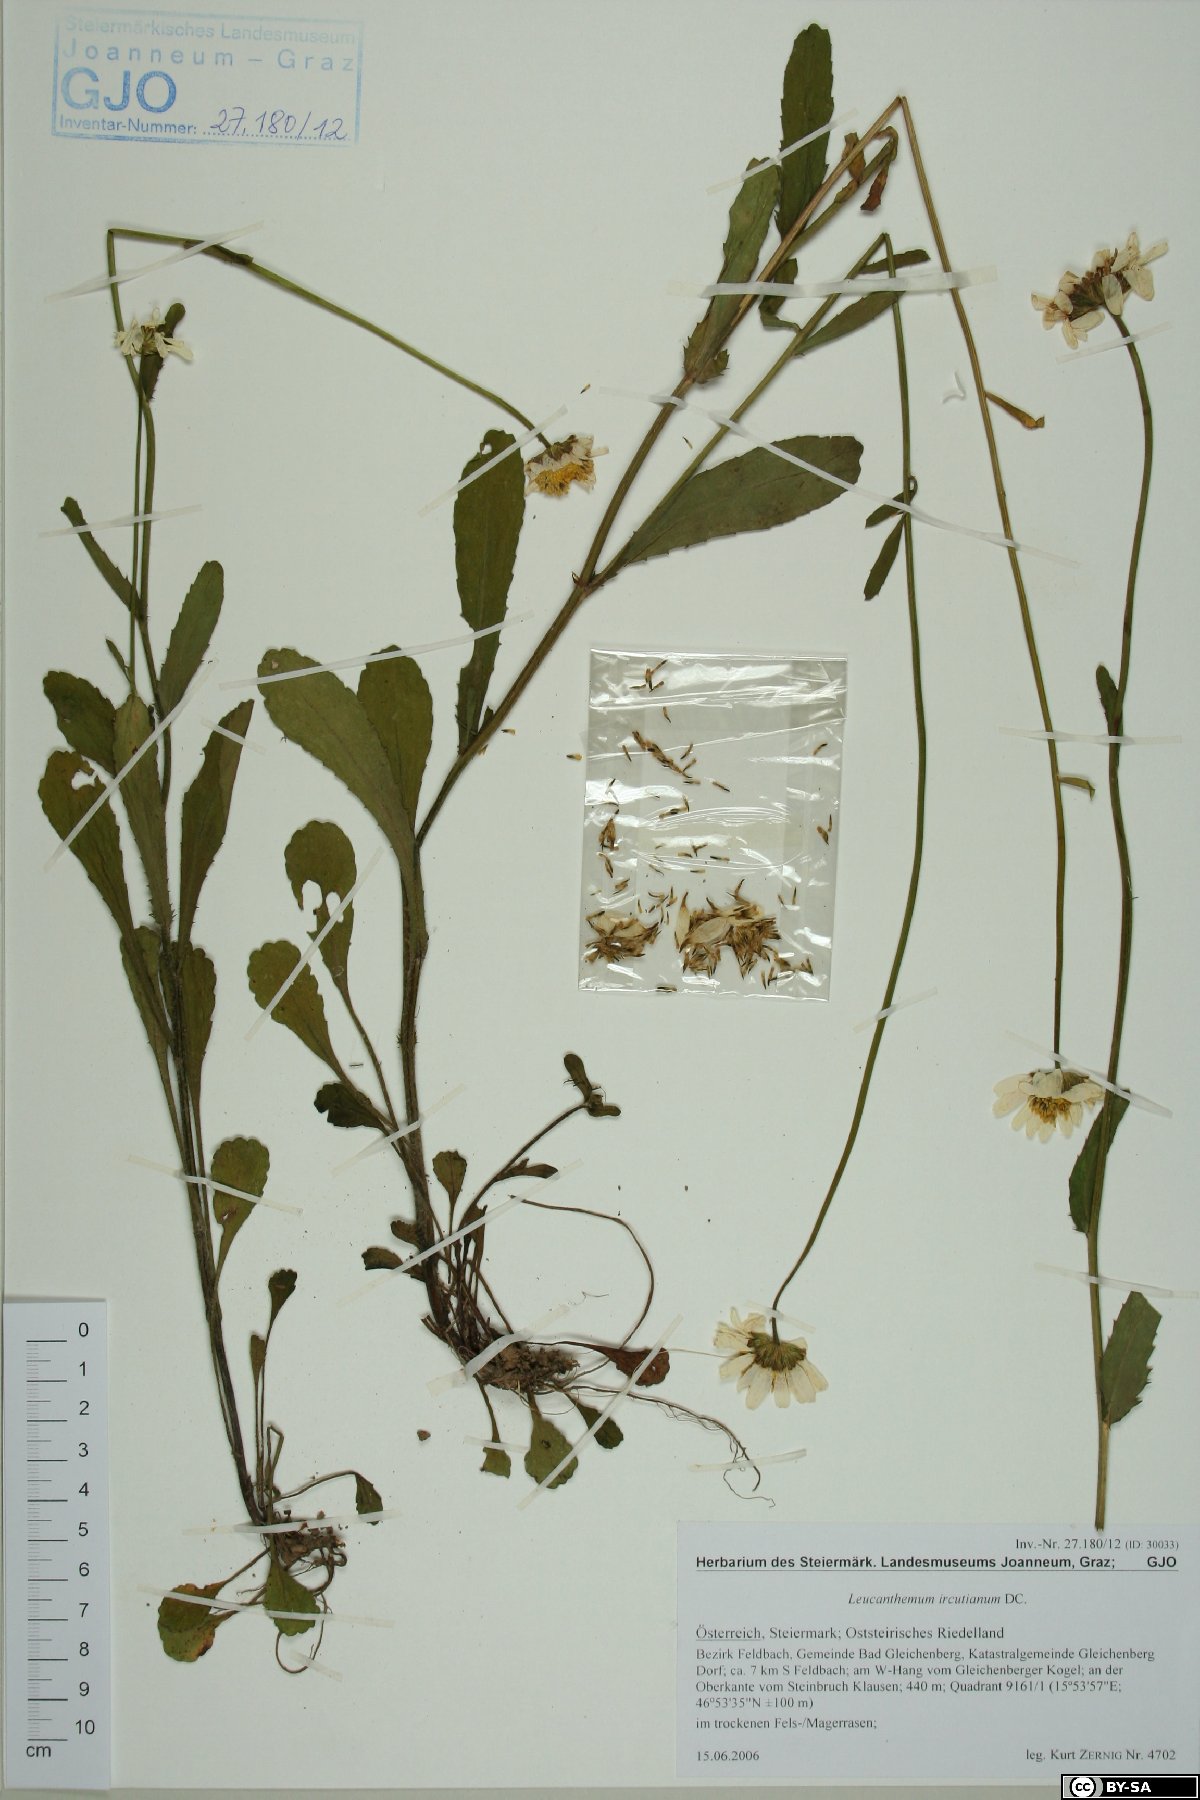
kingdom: Plantae
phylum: Tracheophyta
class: Magnoliopsida
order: Asterales
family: Asteraceae
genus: Leucanthemum
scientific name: Leucanthemum ircutianum
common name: Daisy
